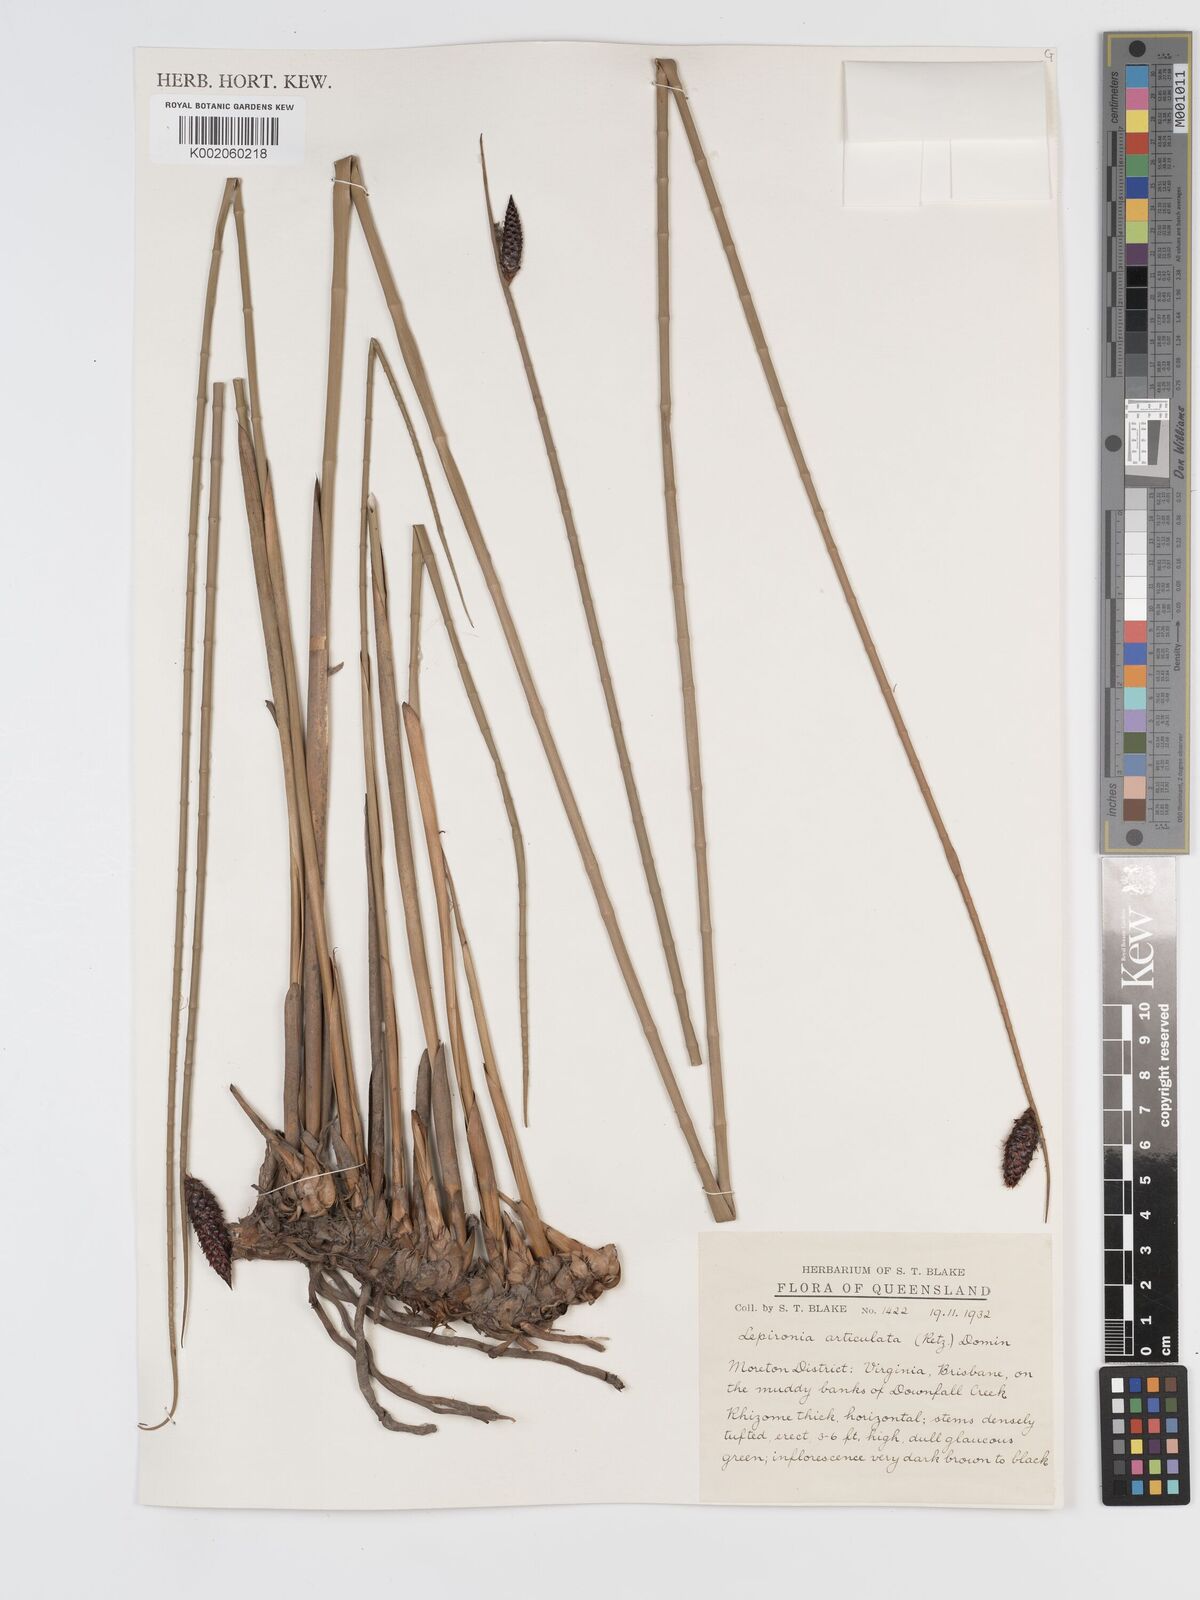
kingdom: Plantae
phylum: Tracheophyta
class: Liliopsida
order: Poales
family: Cyperaceae
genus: Lepironia
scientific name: Lepironia articulata
